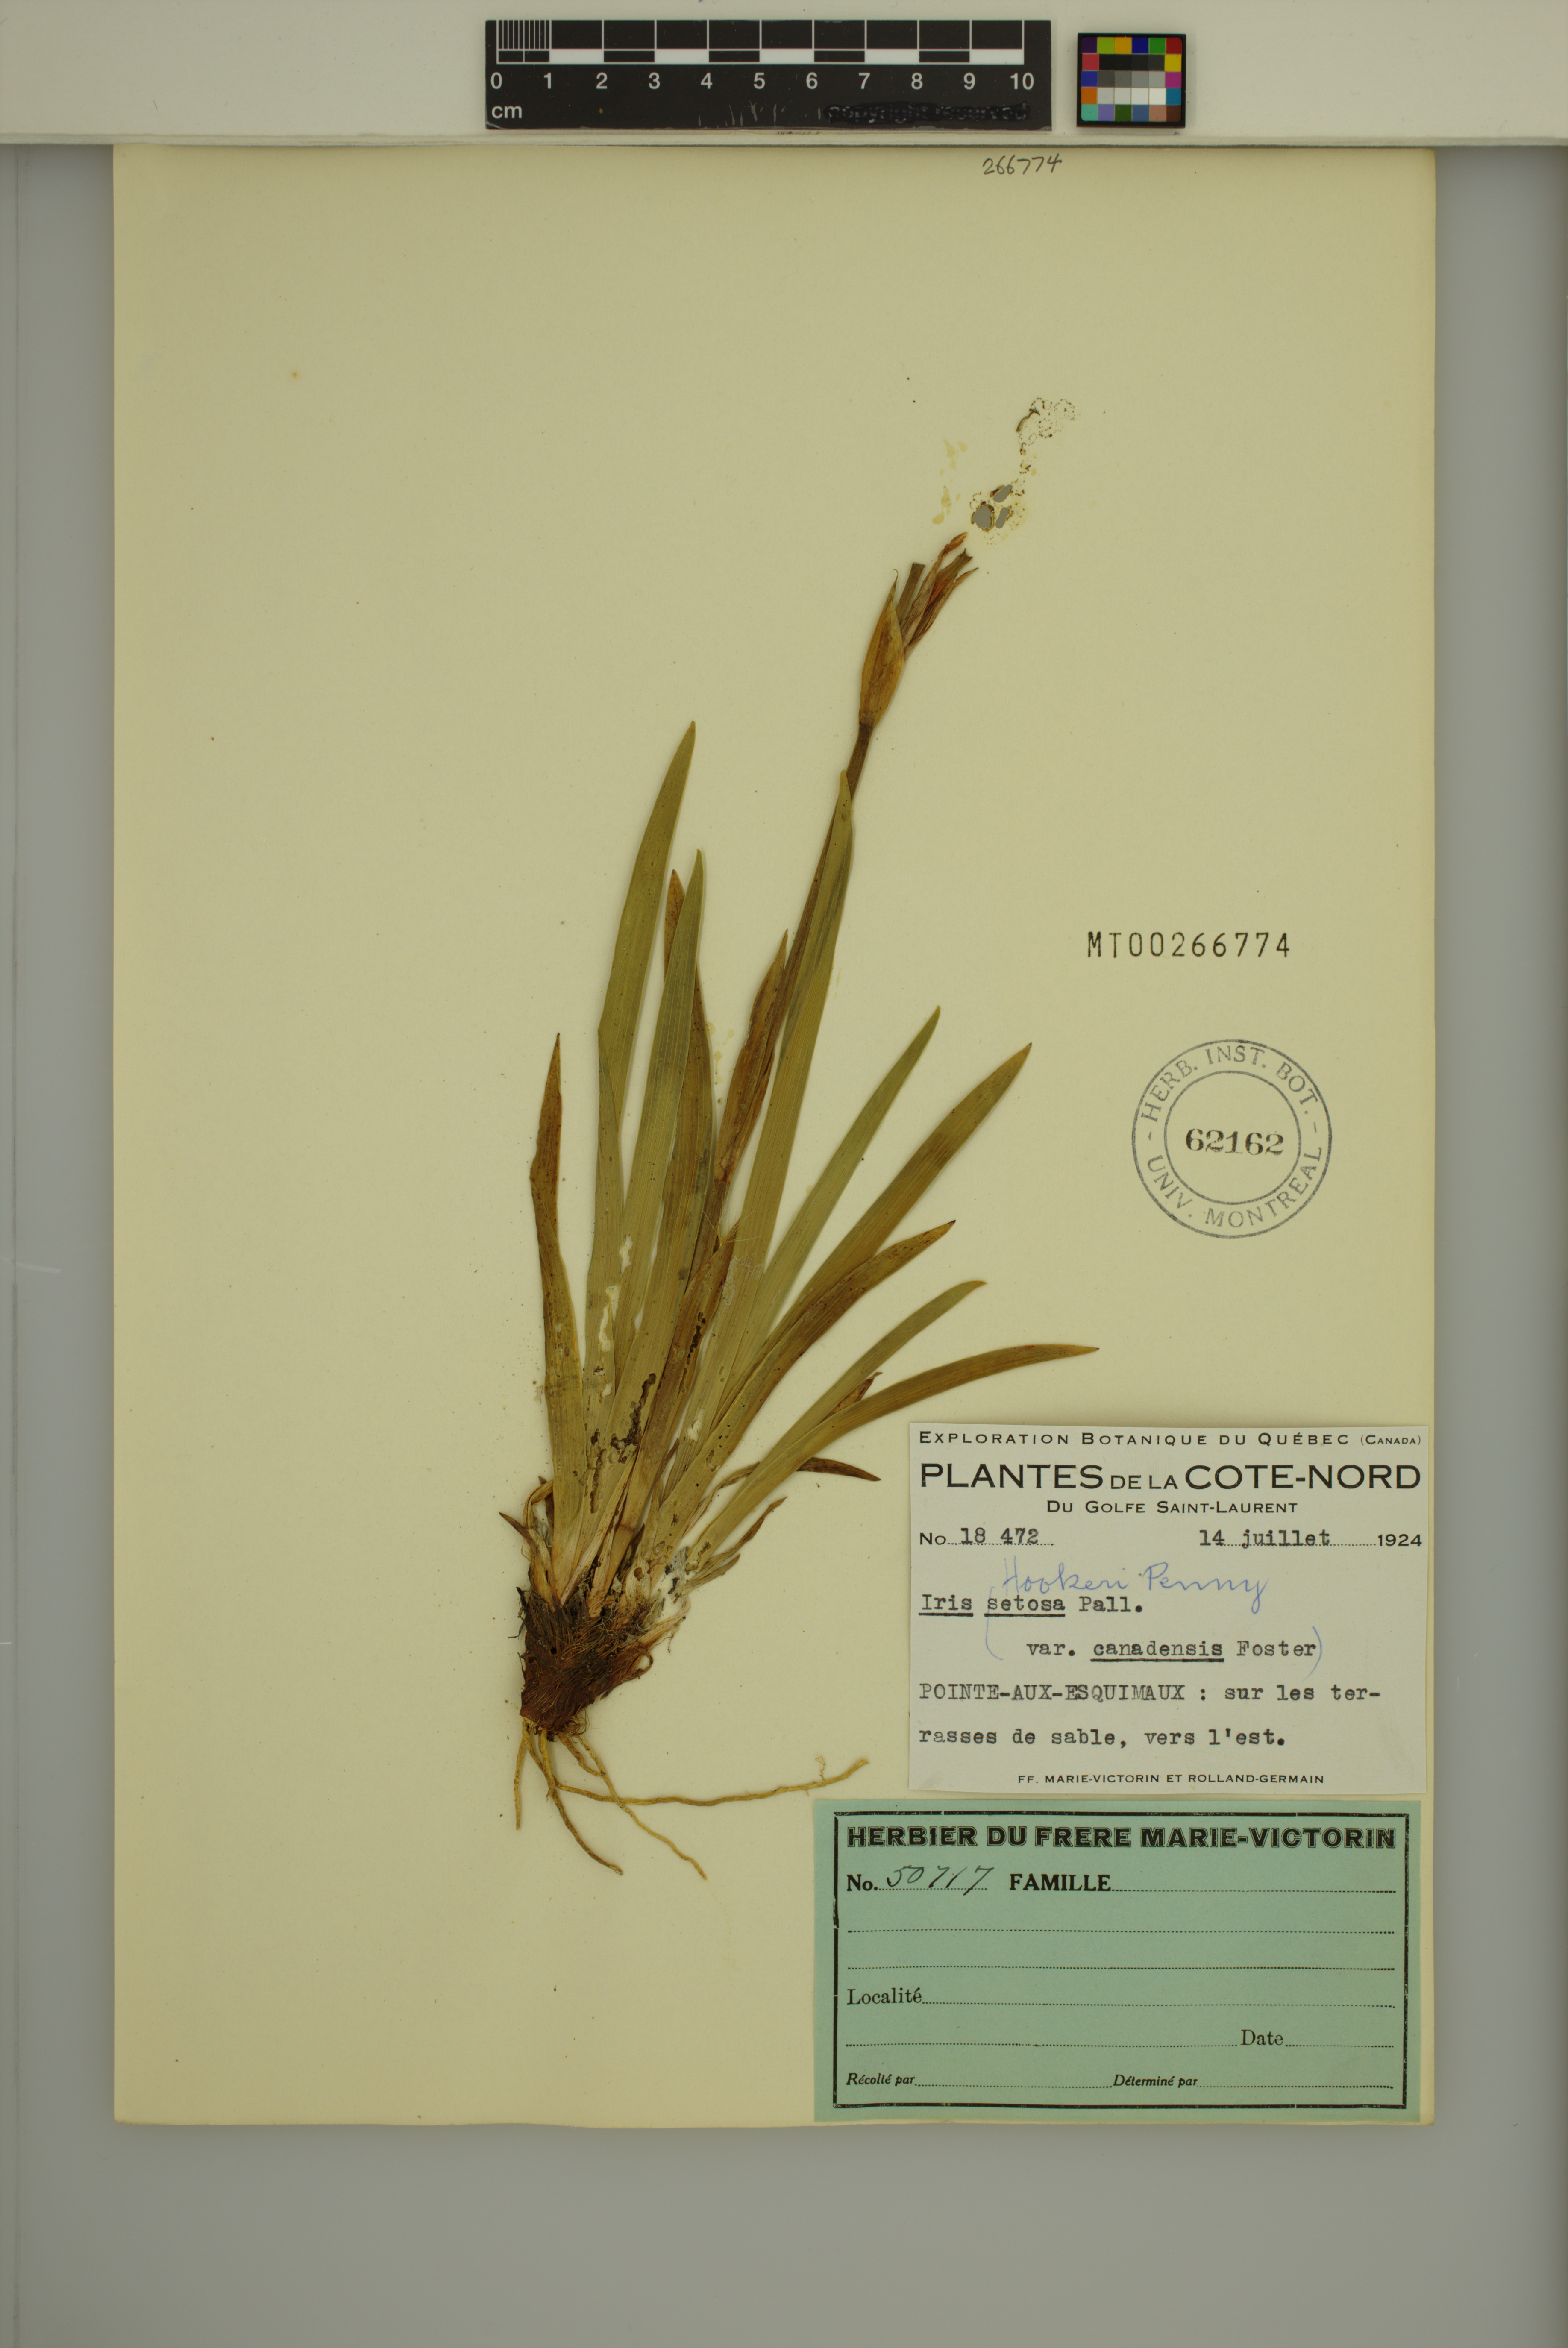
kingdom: Plantae
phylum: Tracheophyta
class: Liliopsida
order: Asparagales
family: Iridaceae
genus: Iris
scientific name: Iris hookeri
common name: Canada beach-head iris
